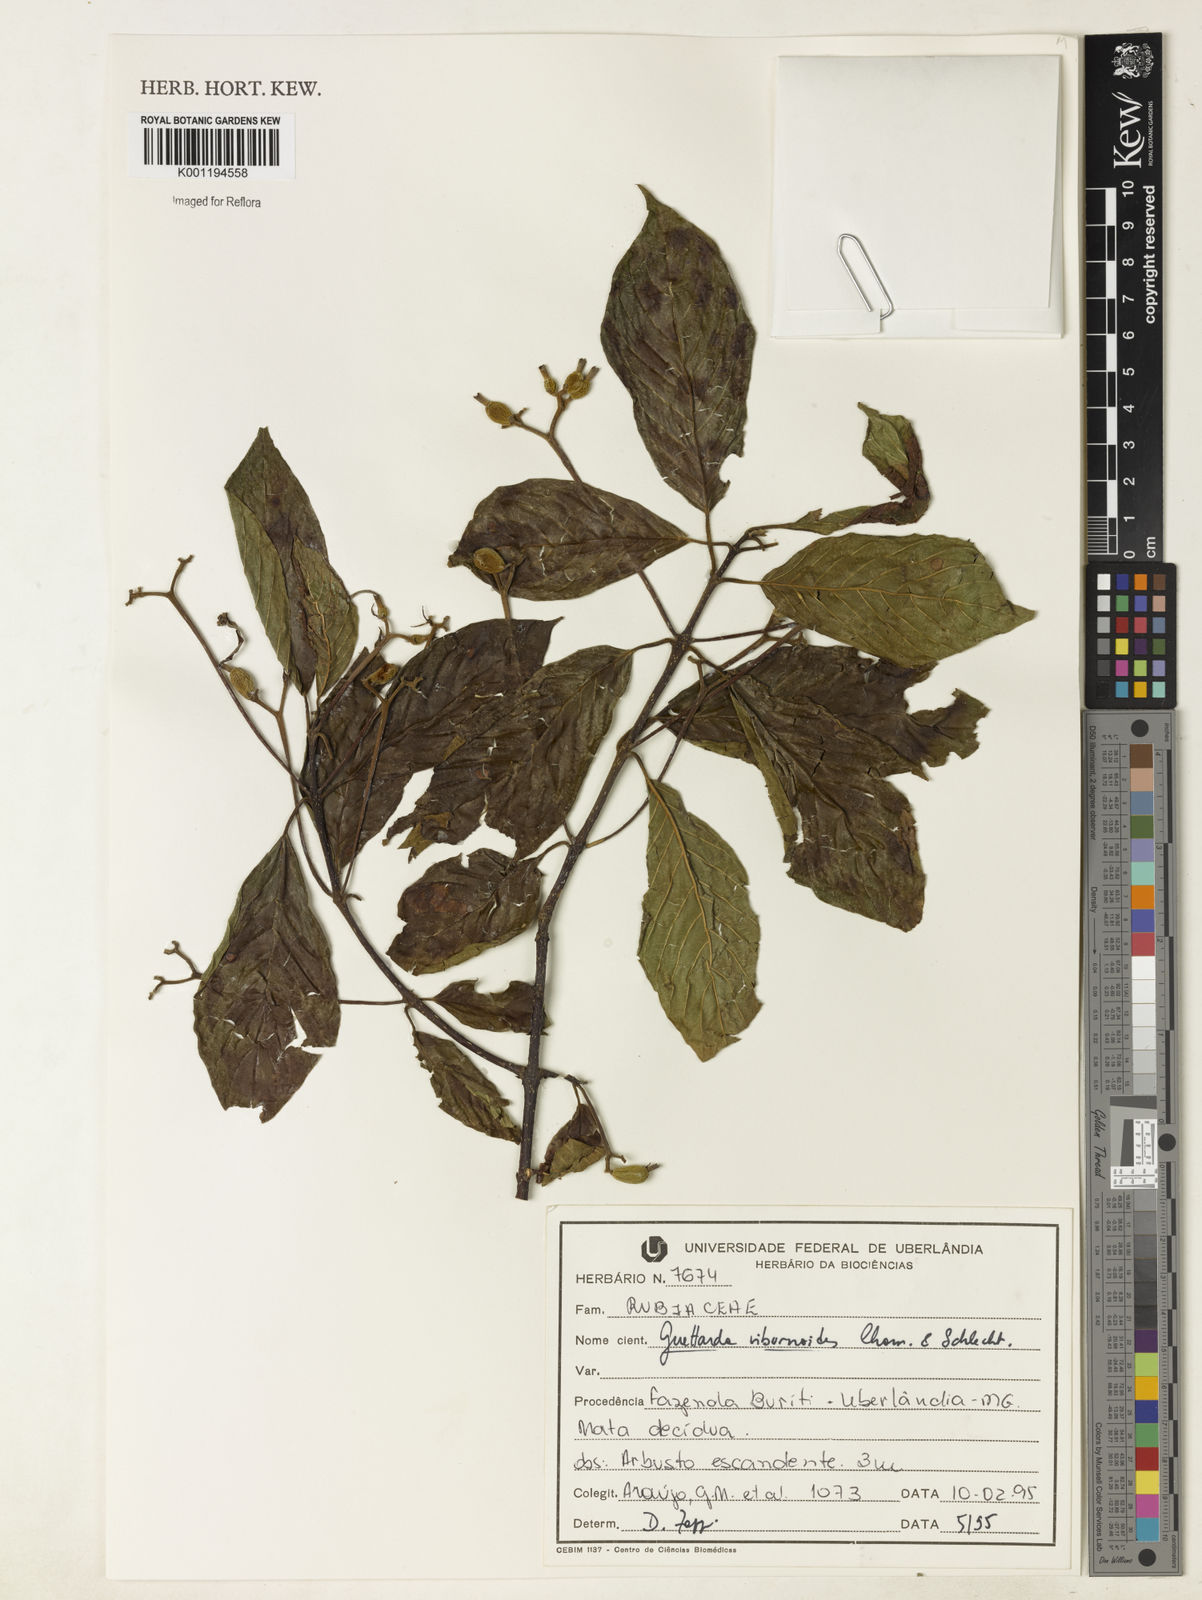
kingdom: Plantae
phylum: Tracheophyta
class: Magnoliopsida
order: Gentianales
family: Rubiaceae
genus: Guettarda
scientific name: Guettarda viburnoides
